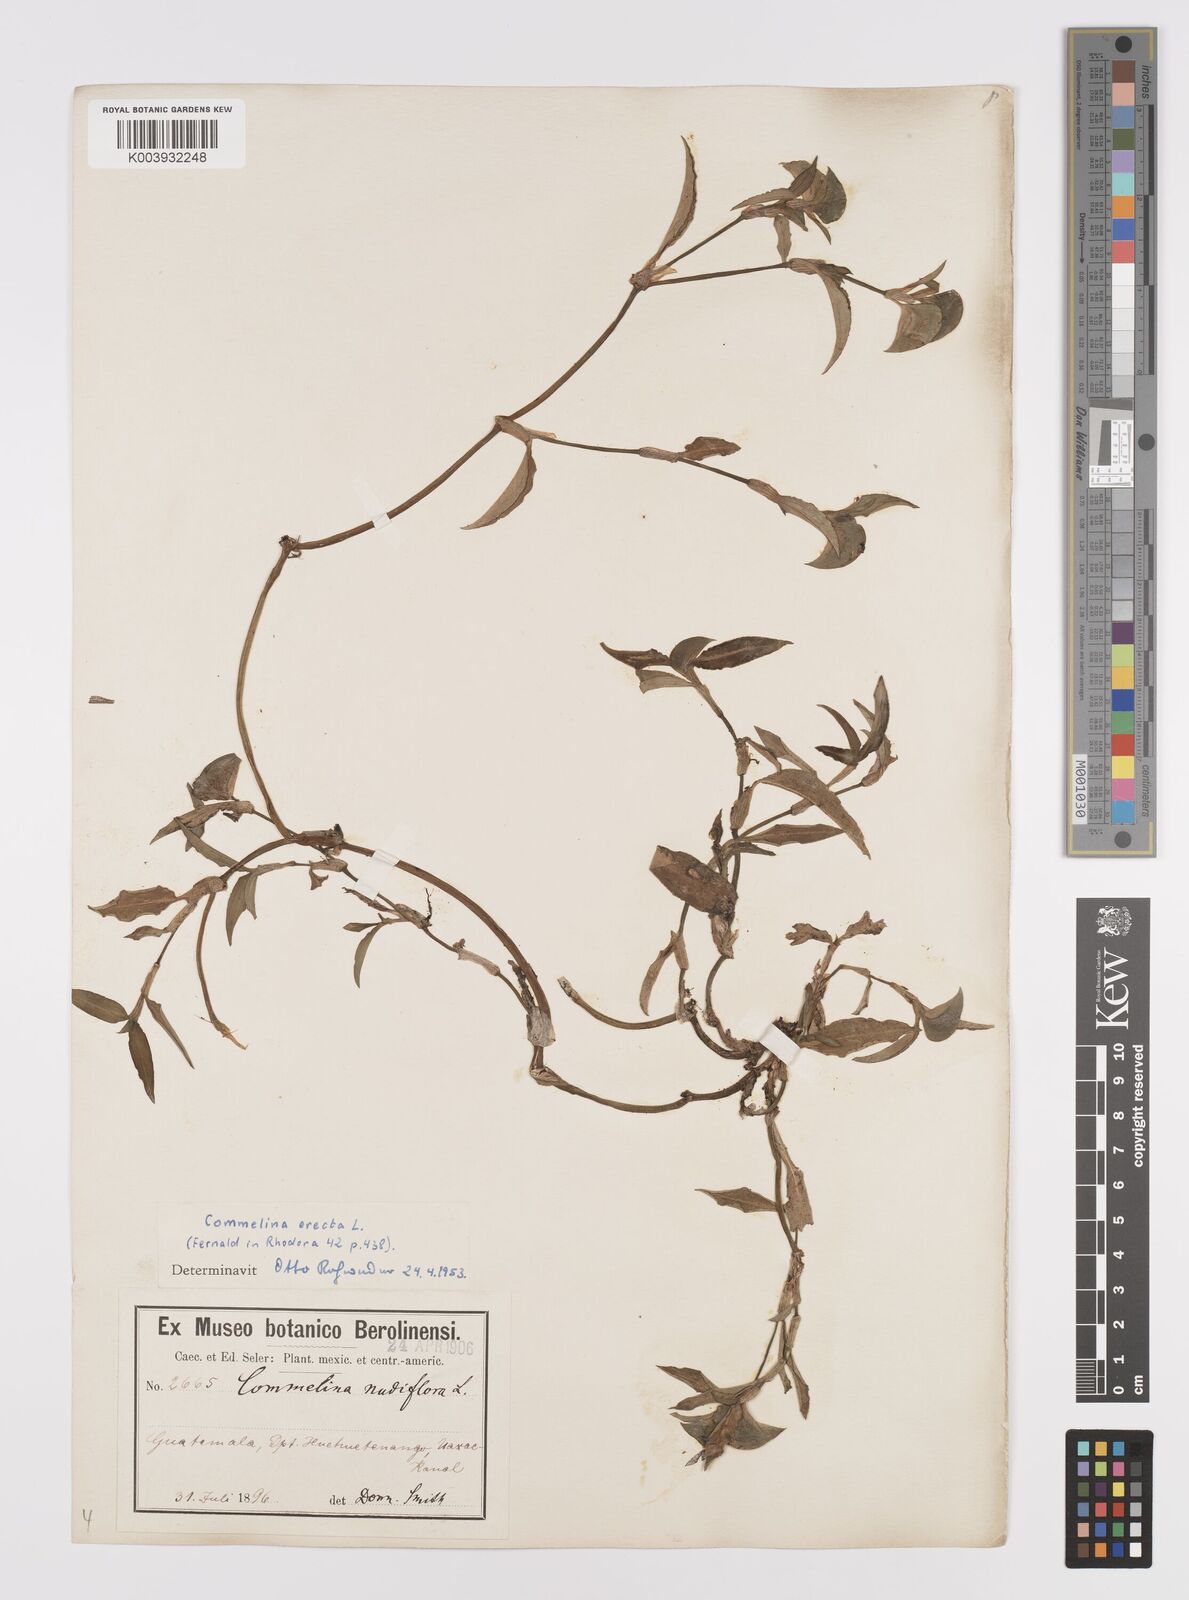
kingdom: Plantae
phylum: Tracheophyta
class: Liliopsida
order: Commelinales
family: Commelinaceae
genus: Commelina
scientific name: Commelina erecta
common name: Blousel blommetjie
